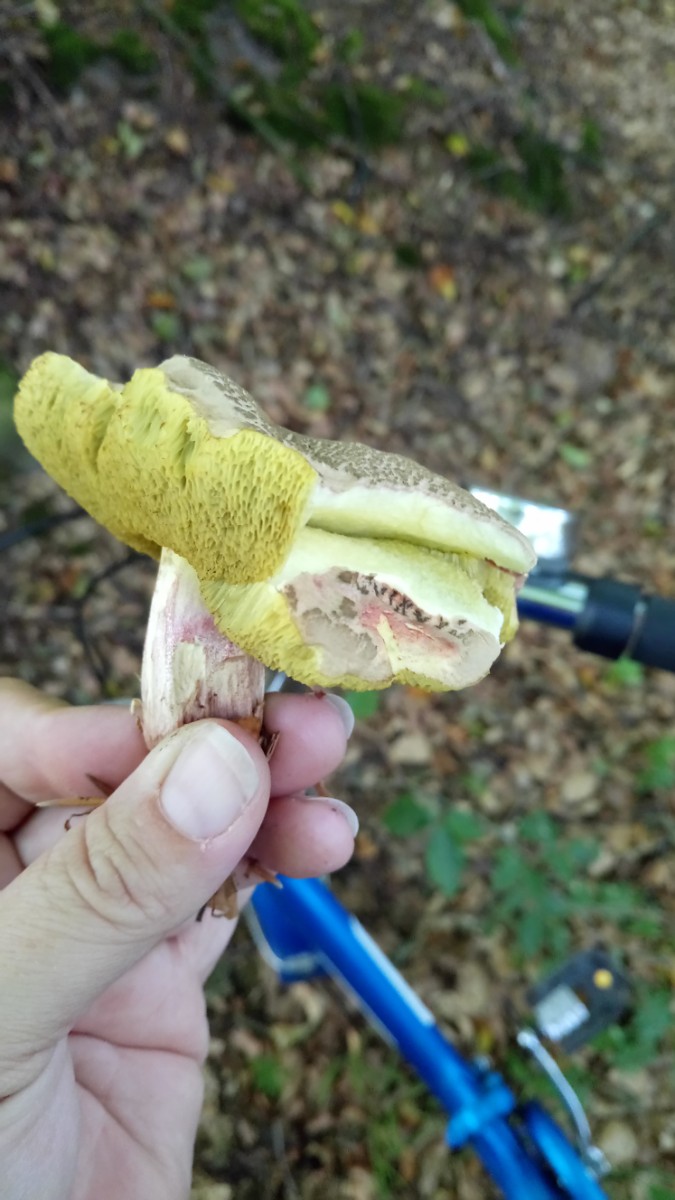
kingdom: Fungi
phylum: Basidiomycota
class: Agaricomycetes
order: Boletales
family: Boletaceae
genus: Xerocomellus
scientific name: Xerocomellus
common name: dværgrørhat
